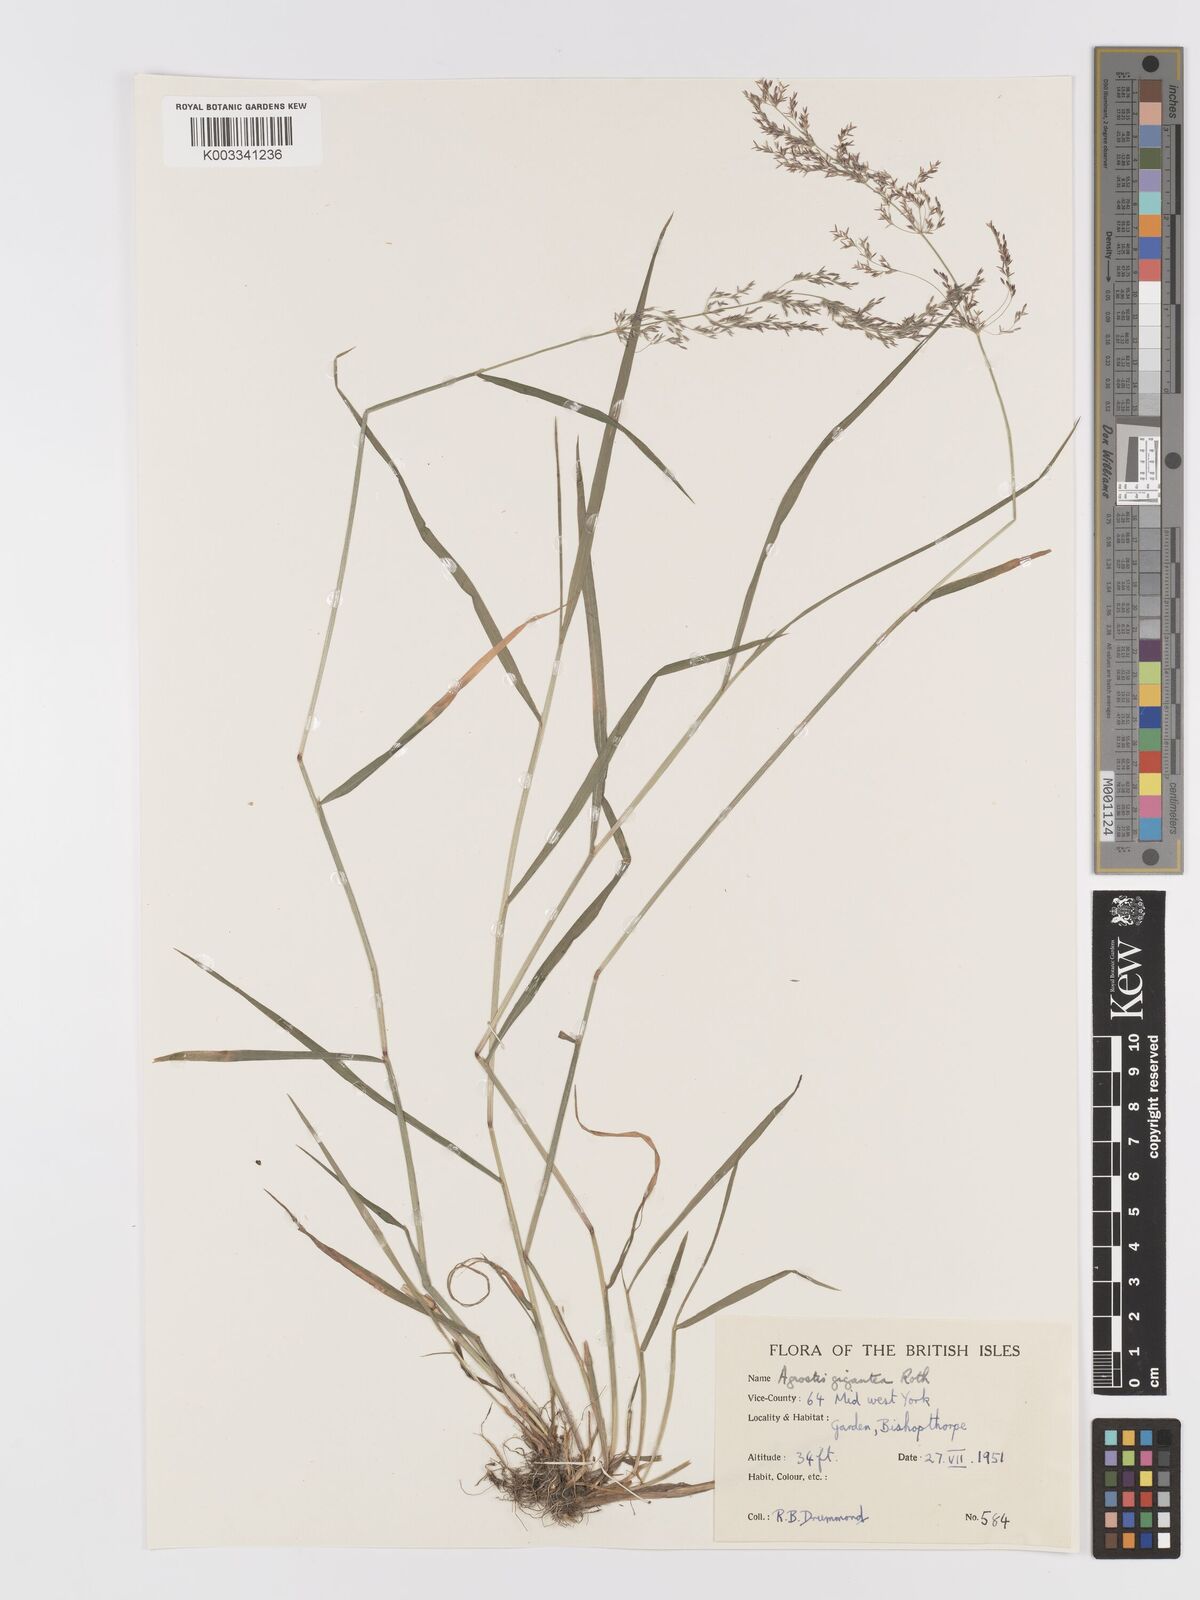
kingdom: Plantae
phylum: Tracheophyta
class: Liliopsida
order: Poales
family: Poaceae
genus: Agrostis
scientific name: Agrostis gigantea
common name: Black bent
